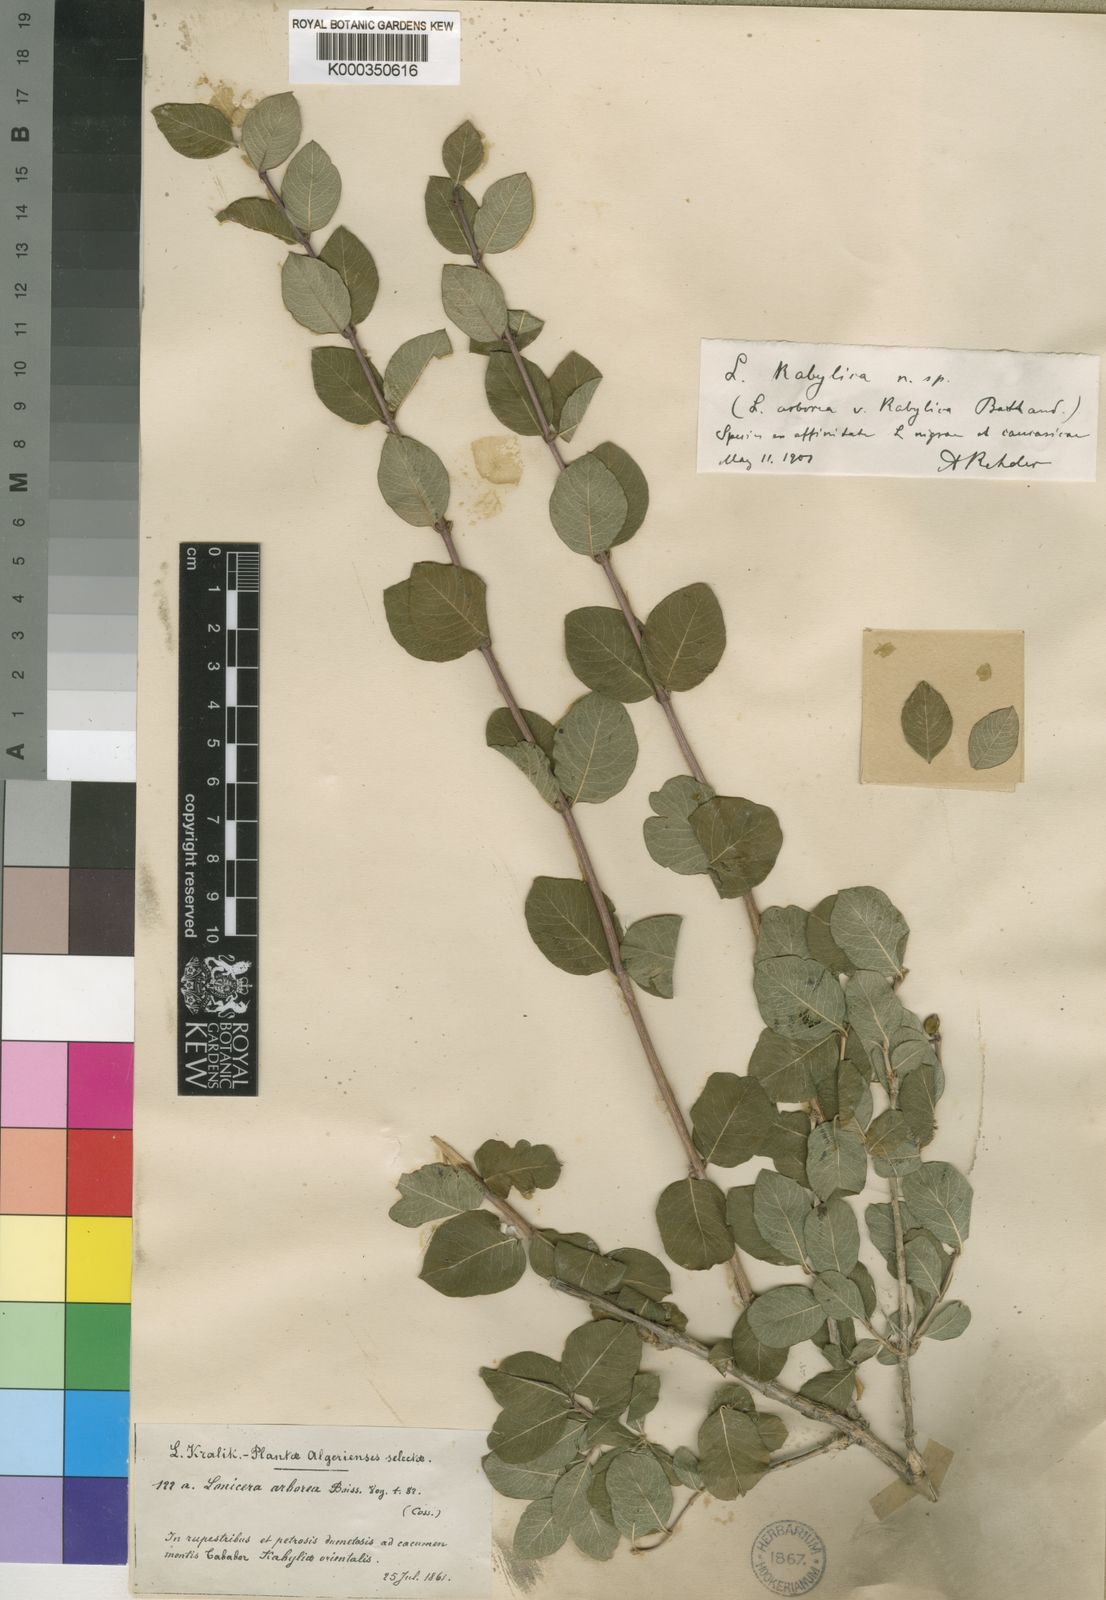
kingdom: Plantae
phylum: Tracheophyta
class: Magnoliopsida
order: Dipsacales
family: Caprifoliaceae
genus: Lonicera
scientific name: Lonicera kabylica
